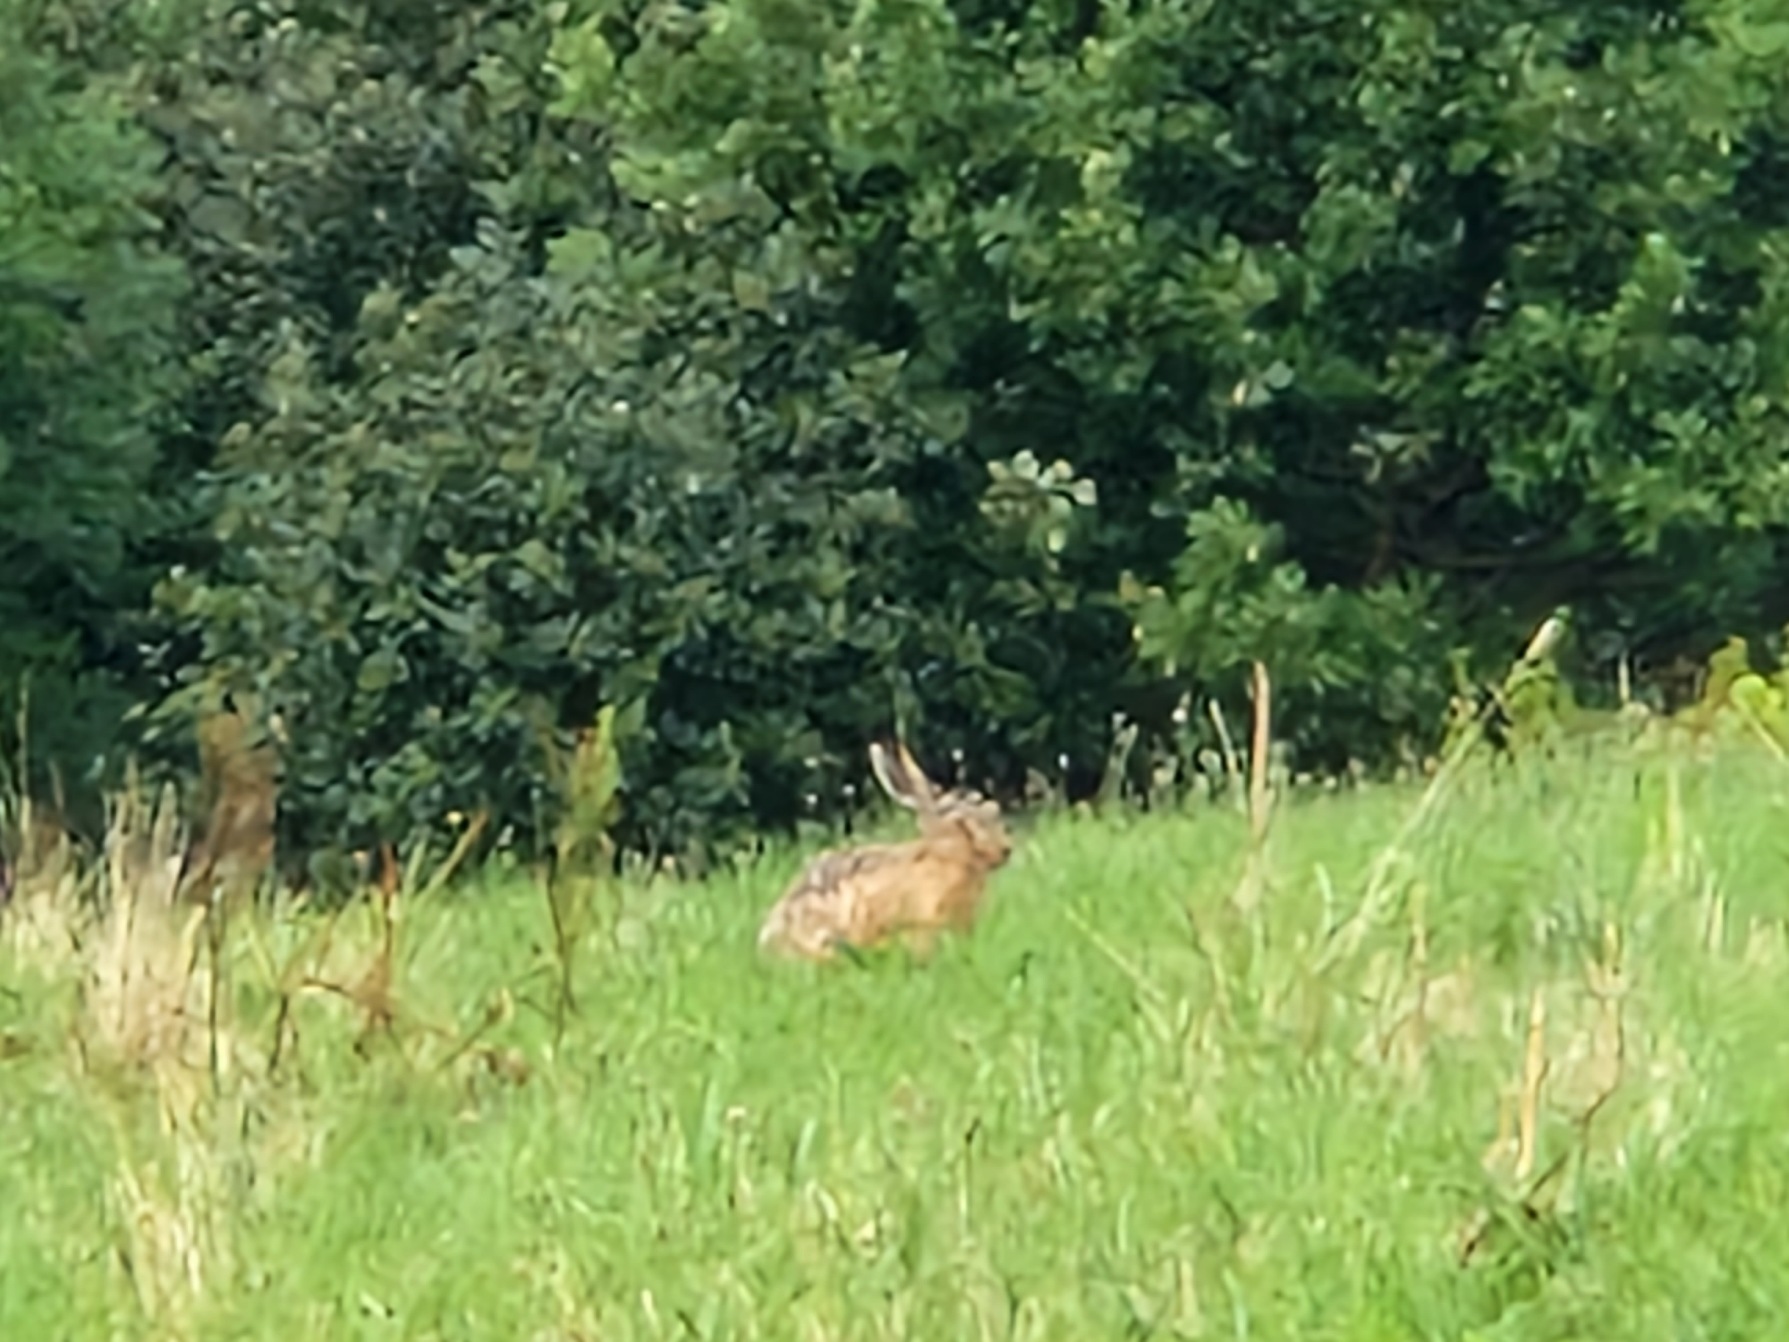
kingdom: Animalia
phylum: Chordata
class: Mammalia
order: Lagomorpha
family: Leporidae
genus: Lepus
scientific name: Lepus europaeus
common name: Hare
